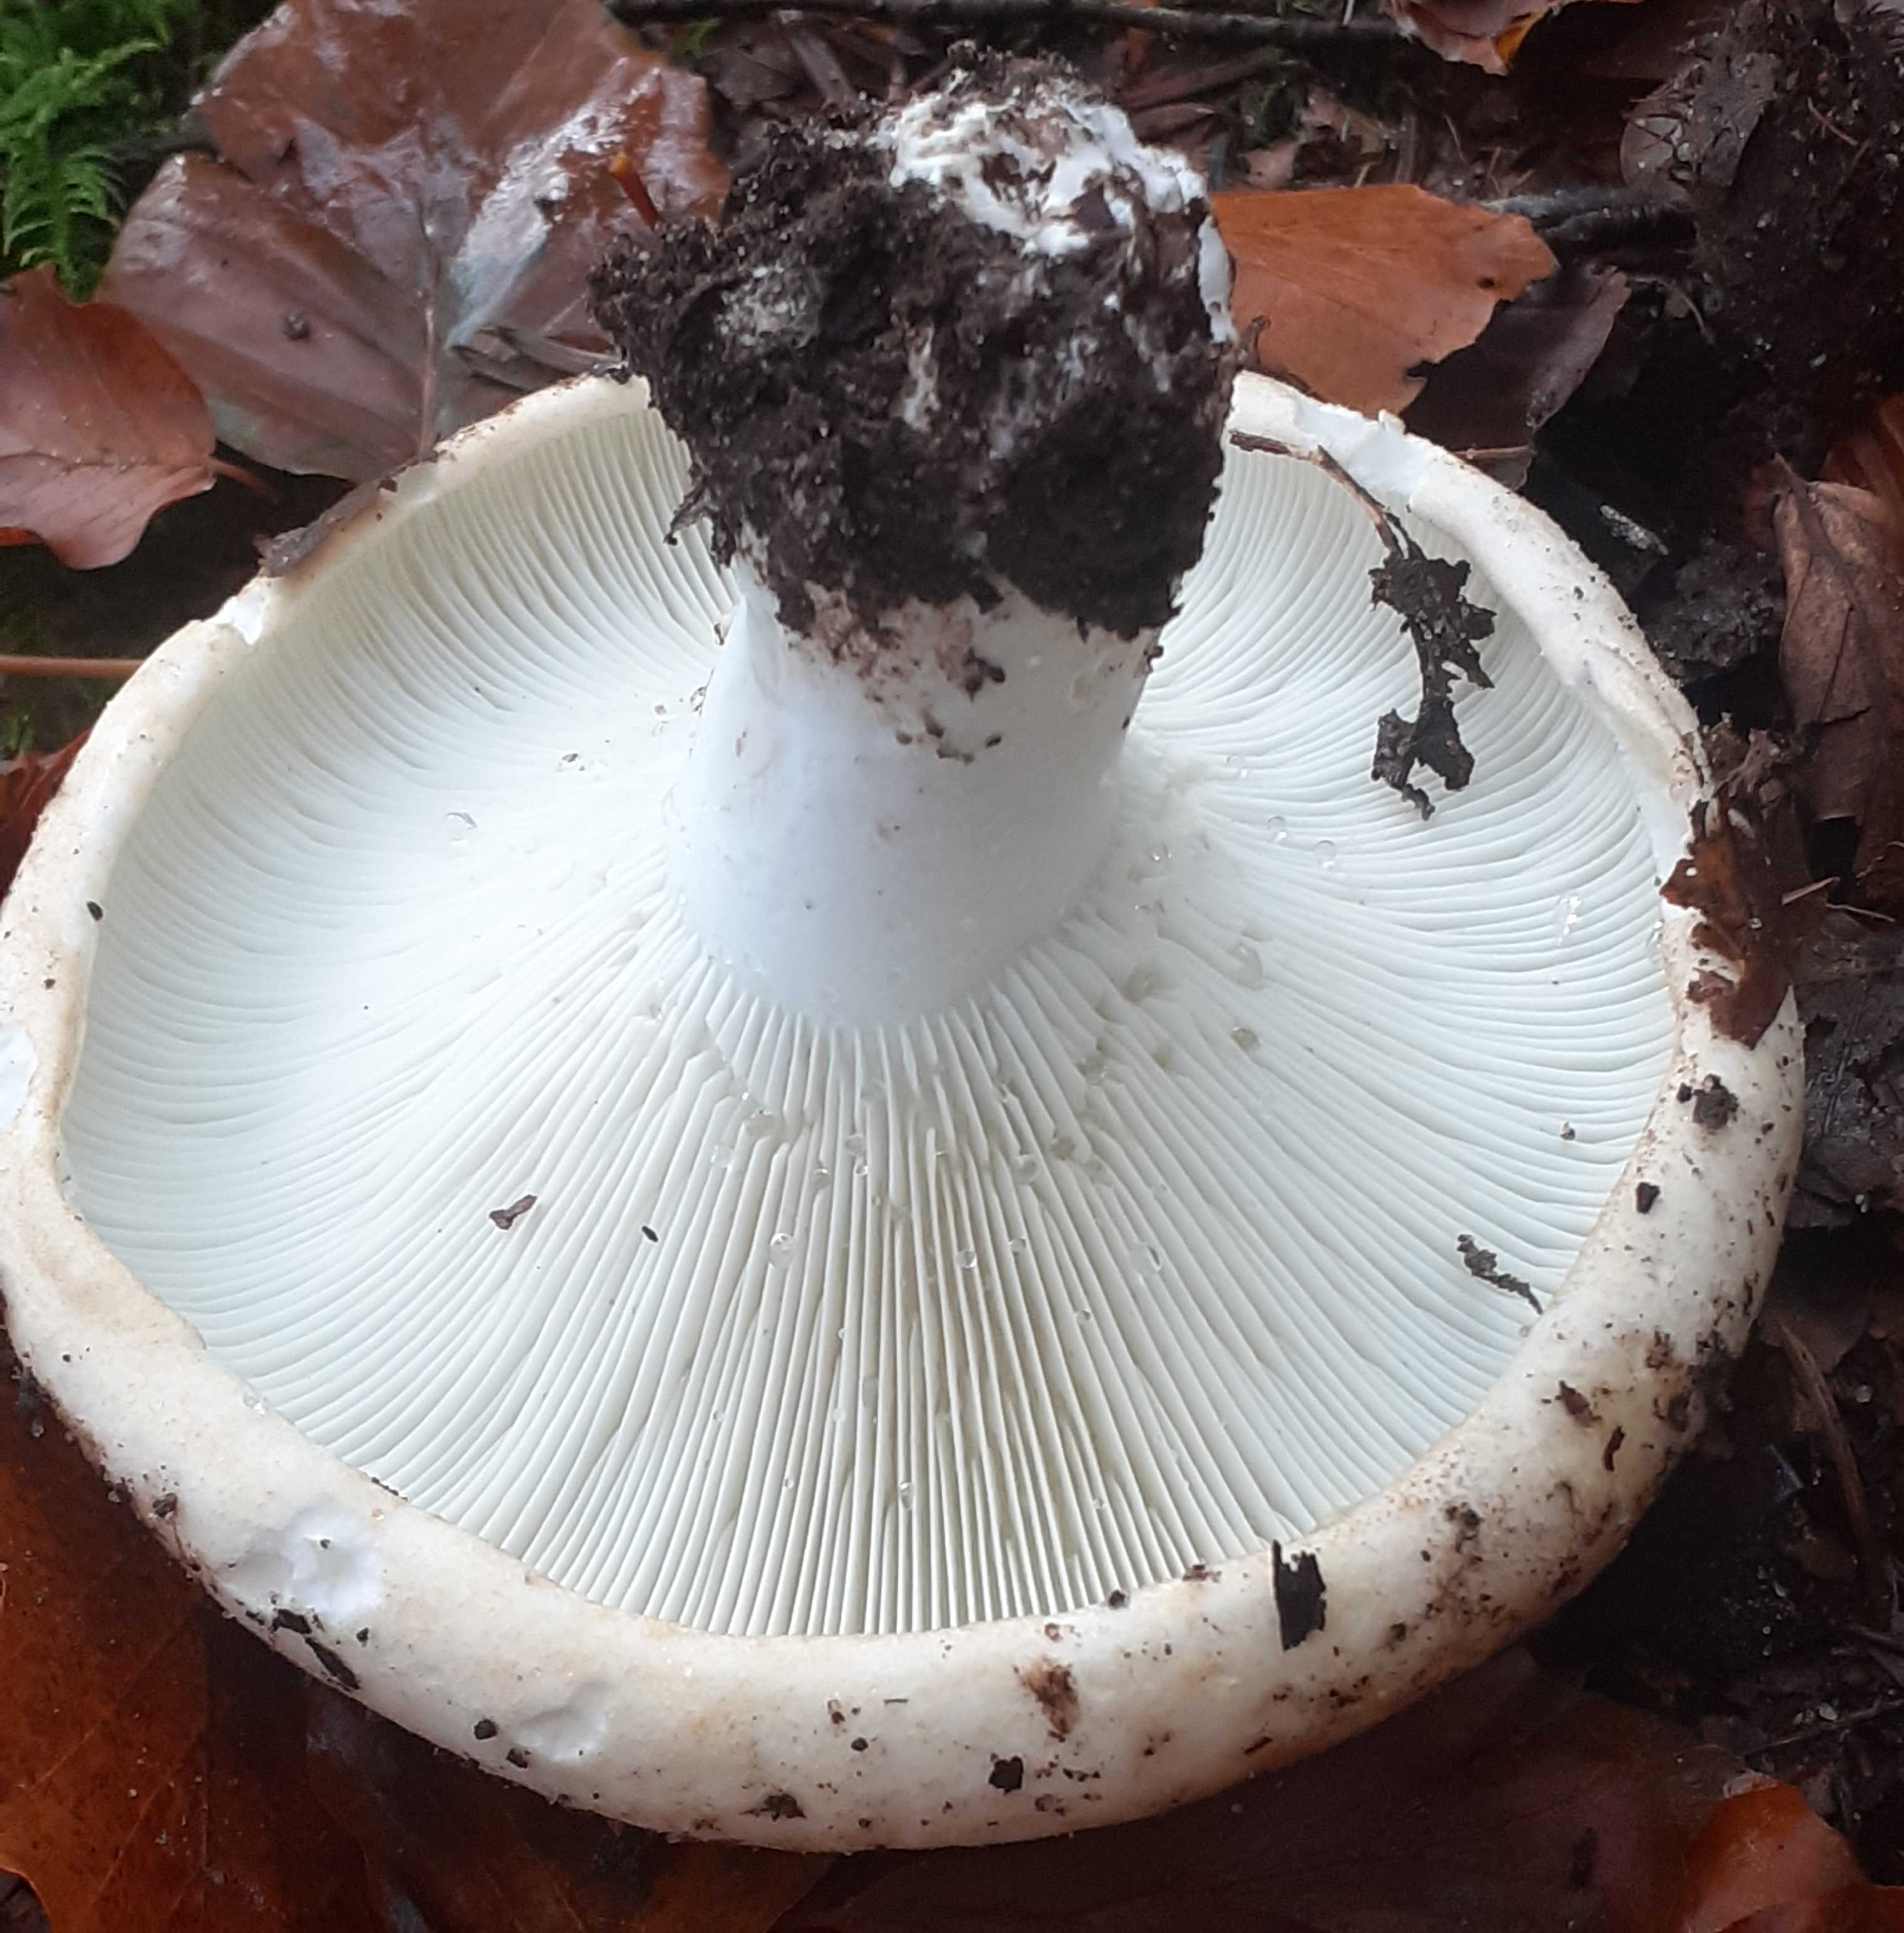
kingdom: Fungi
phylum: Basidiomycota
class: Agaricomycetes
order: Russulales
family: Russulaceae
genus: Russula
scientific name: Russula chloroides
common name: grønhalset tragt-skørhat
